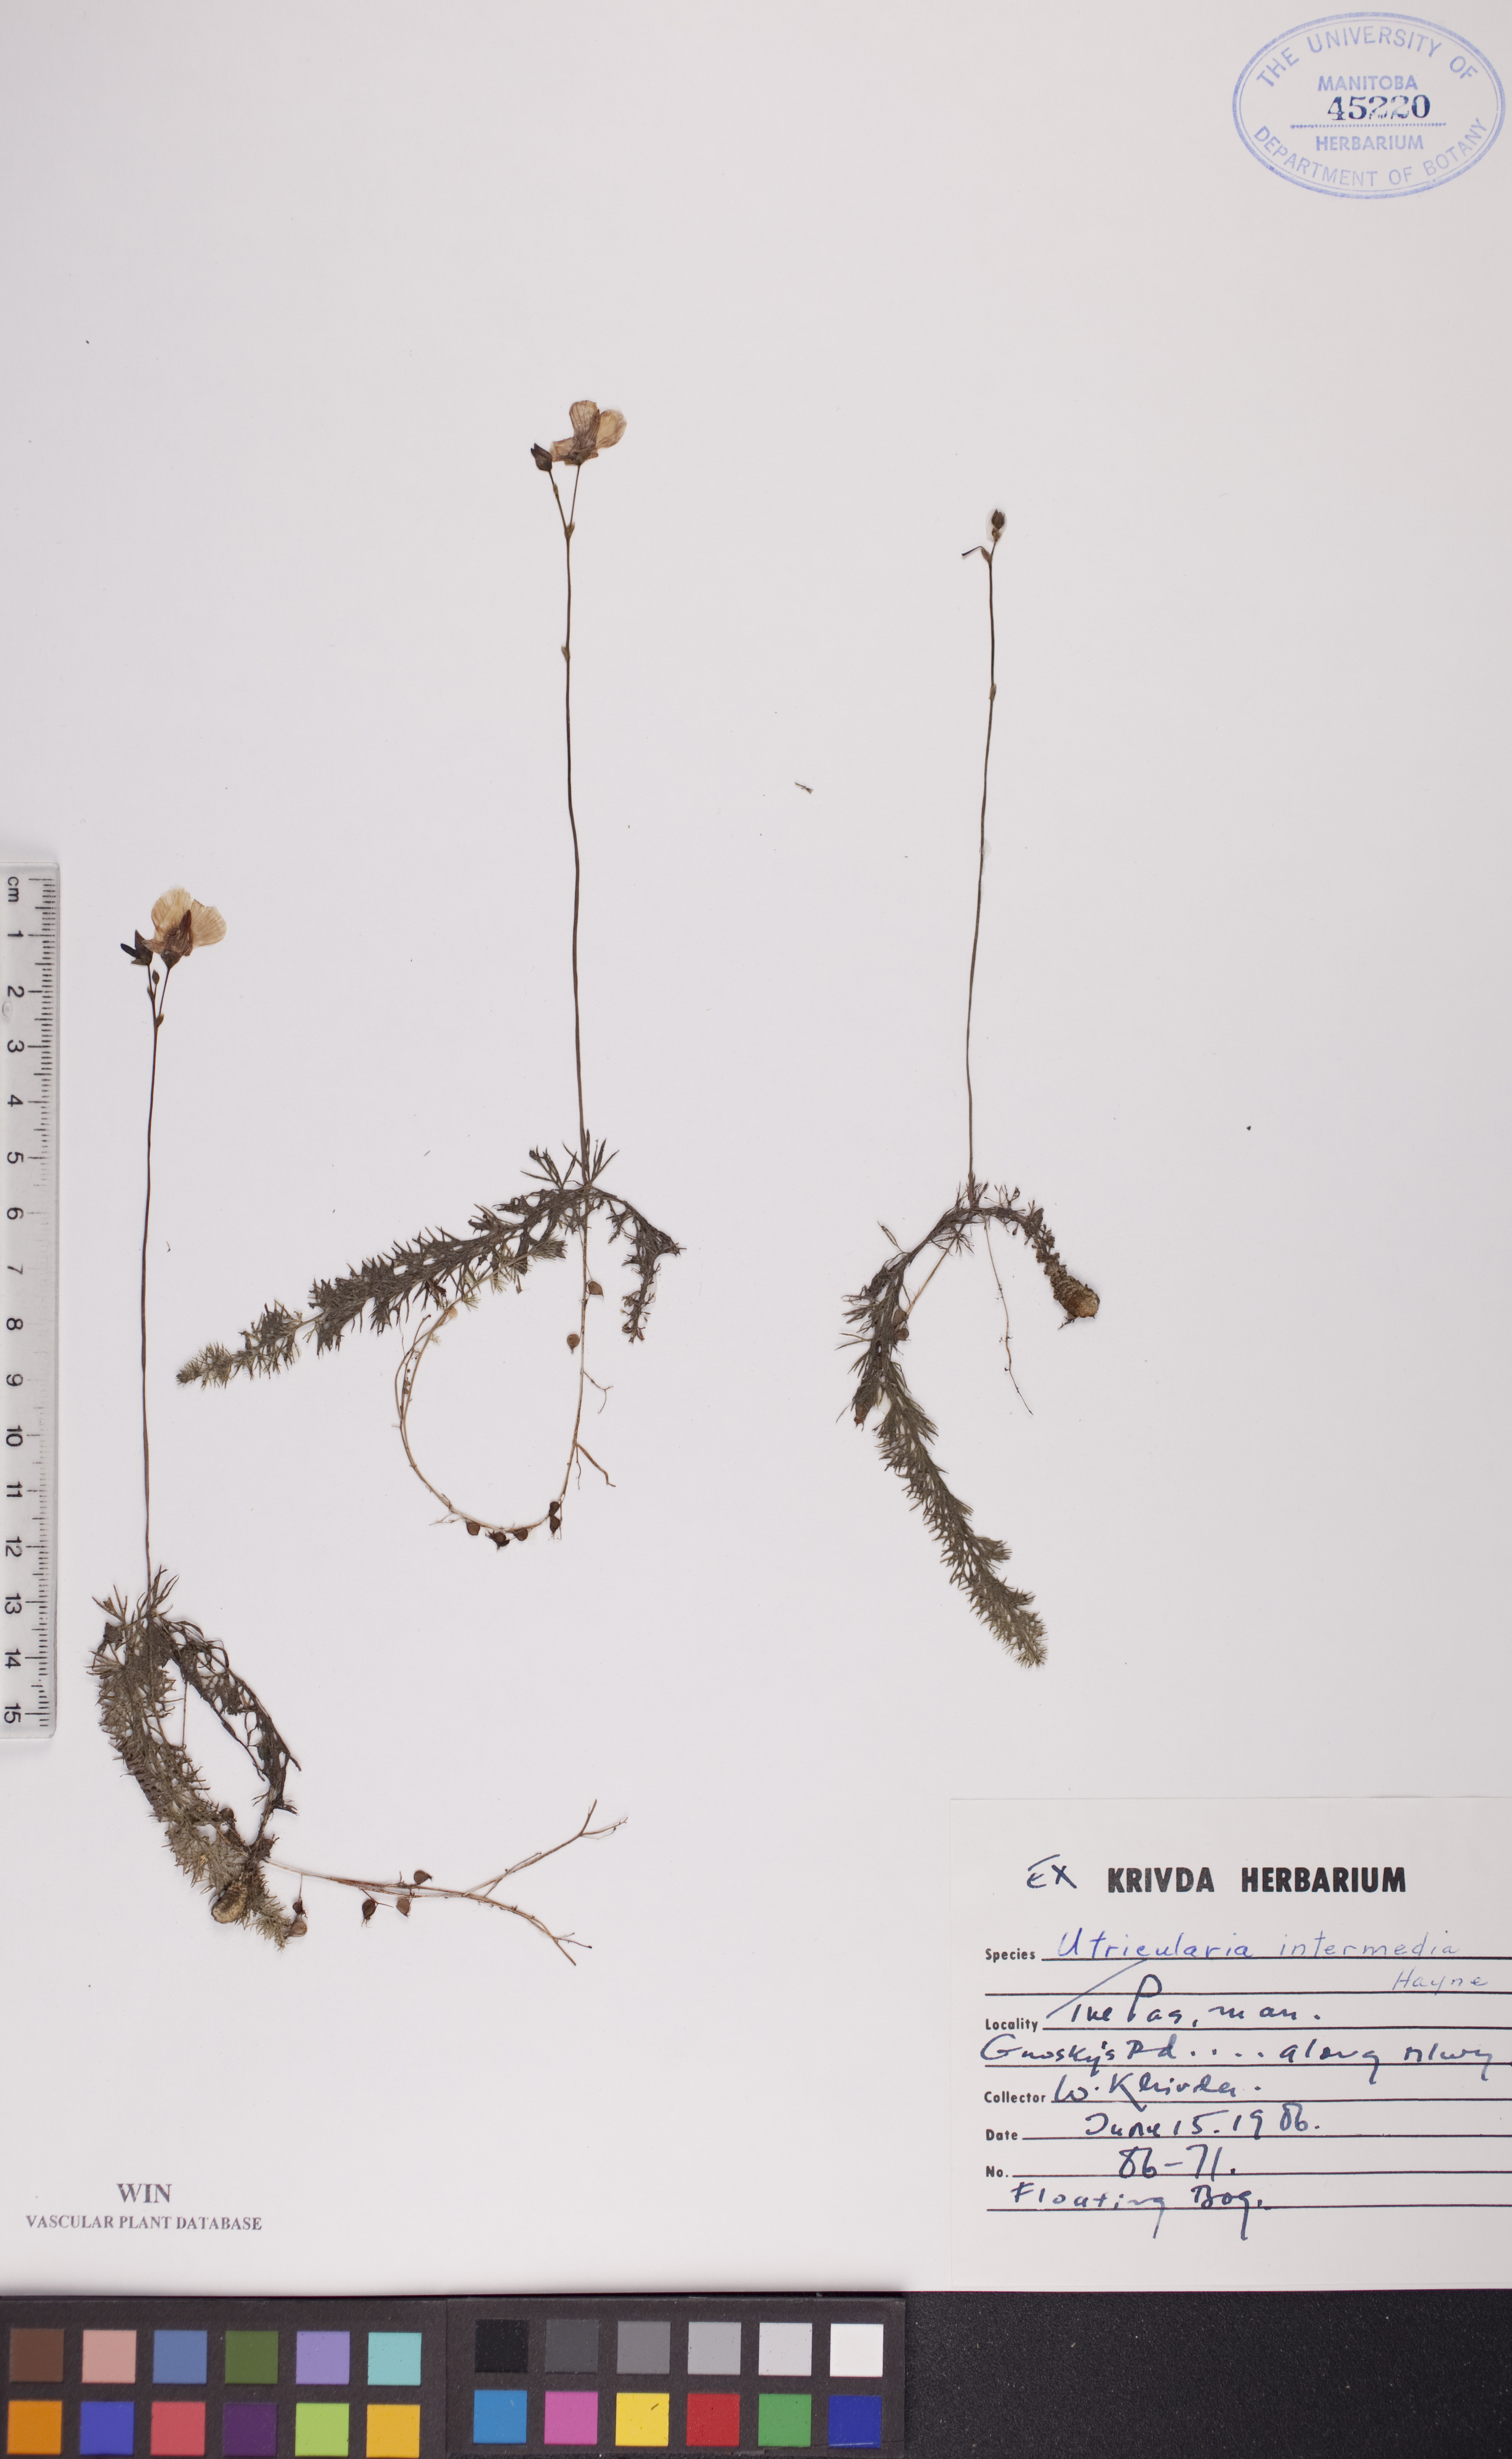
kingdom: Plantae
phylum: Tracheophyta
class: Magnoliopsida
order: Lamiales
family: Lentibulariaceae
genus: Utricularia
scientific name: Utricularia intermedia
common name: Intermediate bladderwort
